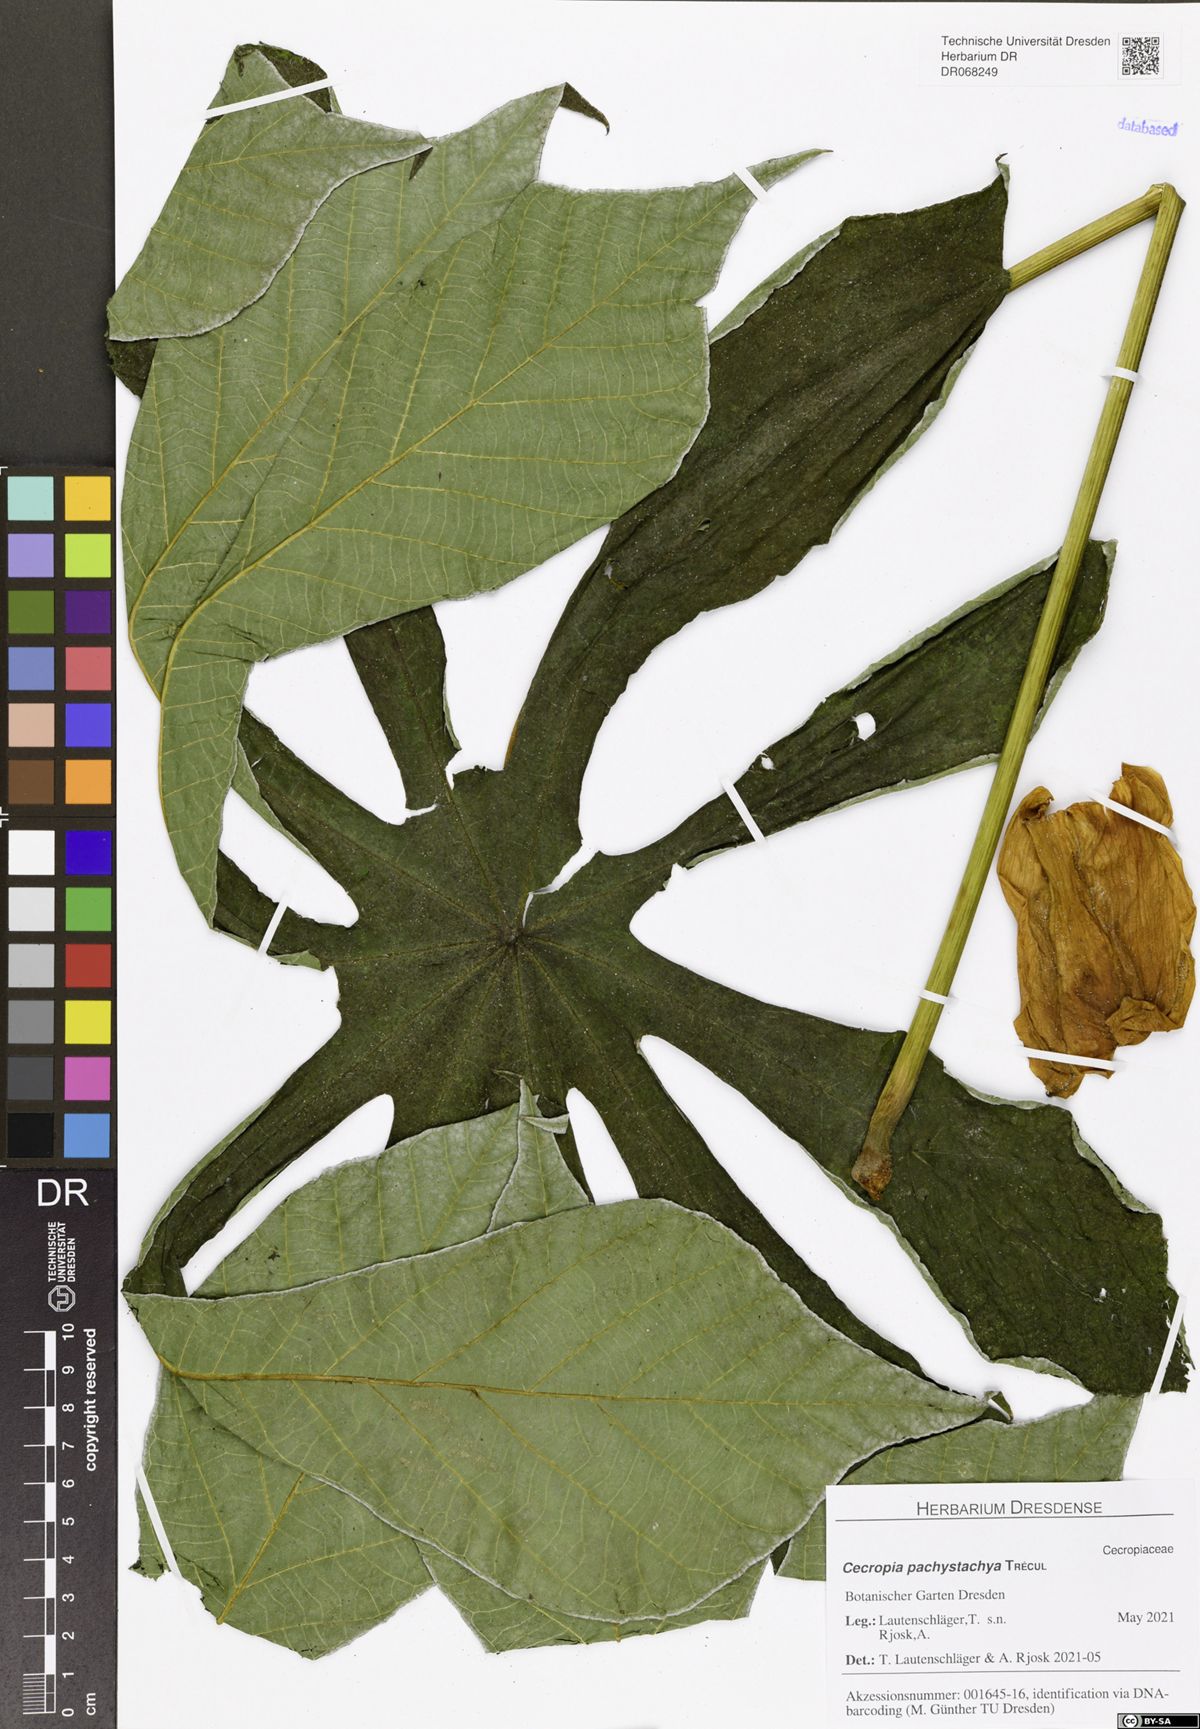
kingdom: Plantae
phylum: Tracheophyta
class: Magnoliopsida
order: Rosales
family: Urticaceae
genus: Cecropia
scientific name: Cecropia pachystachya
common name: Ambay pumpwood
